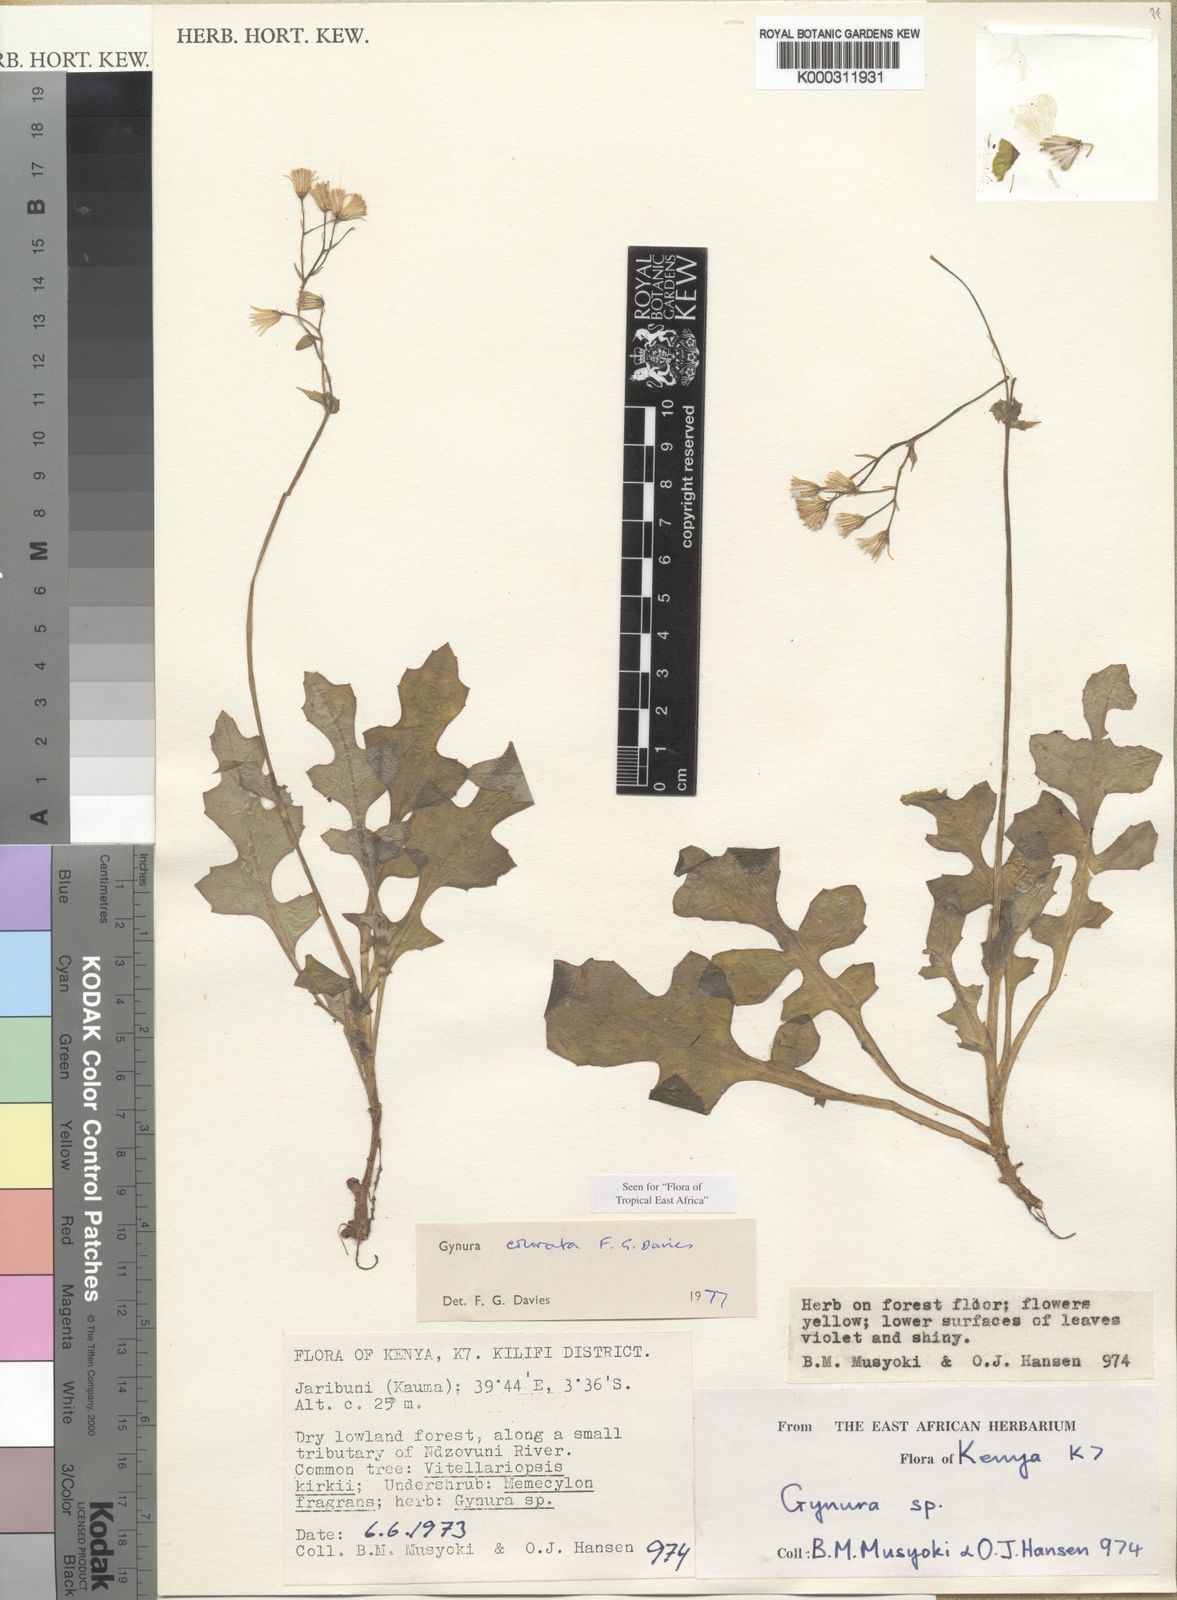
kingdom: Plantae
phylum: Tracheophyta
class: Magnoliopsida
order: Asterales
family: Asteraceae
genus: Gynura
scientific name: Gynura colorata
